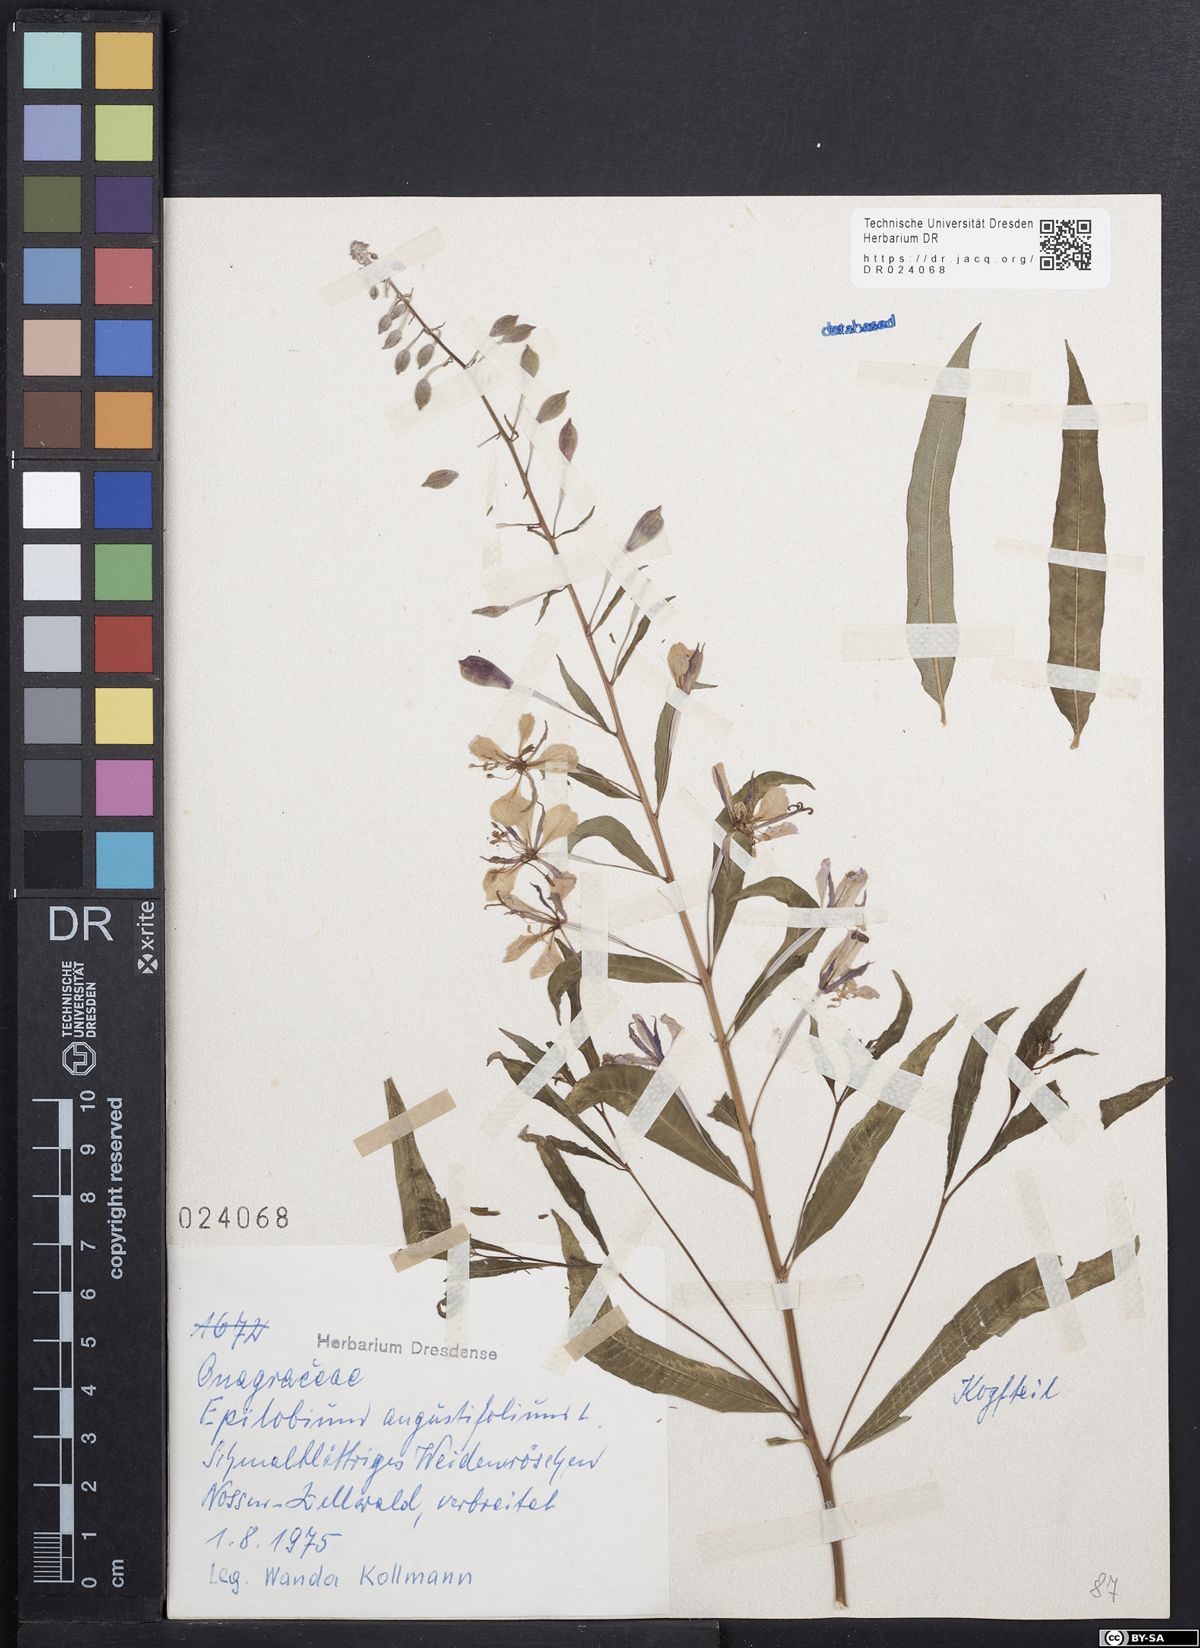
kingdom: Plantae
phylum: Tracheophyta
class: Magnoliopsida
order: Myrtales
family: Onagraceae
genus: Chamaenerion
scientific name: Chamaenerion angustifolium
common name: Fireweed
